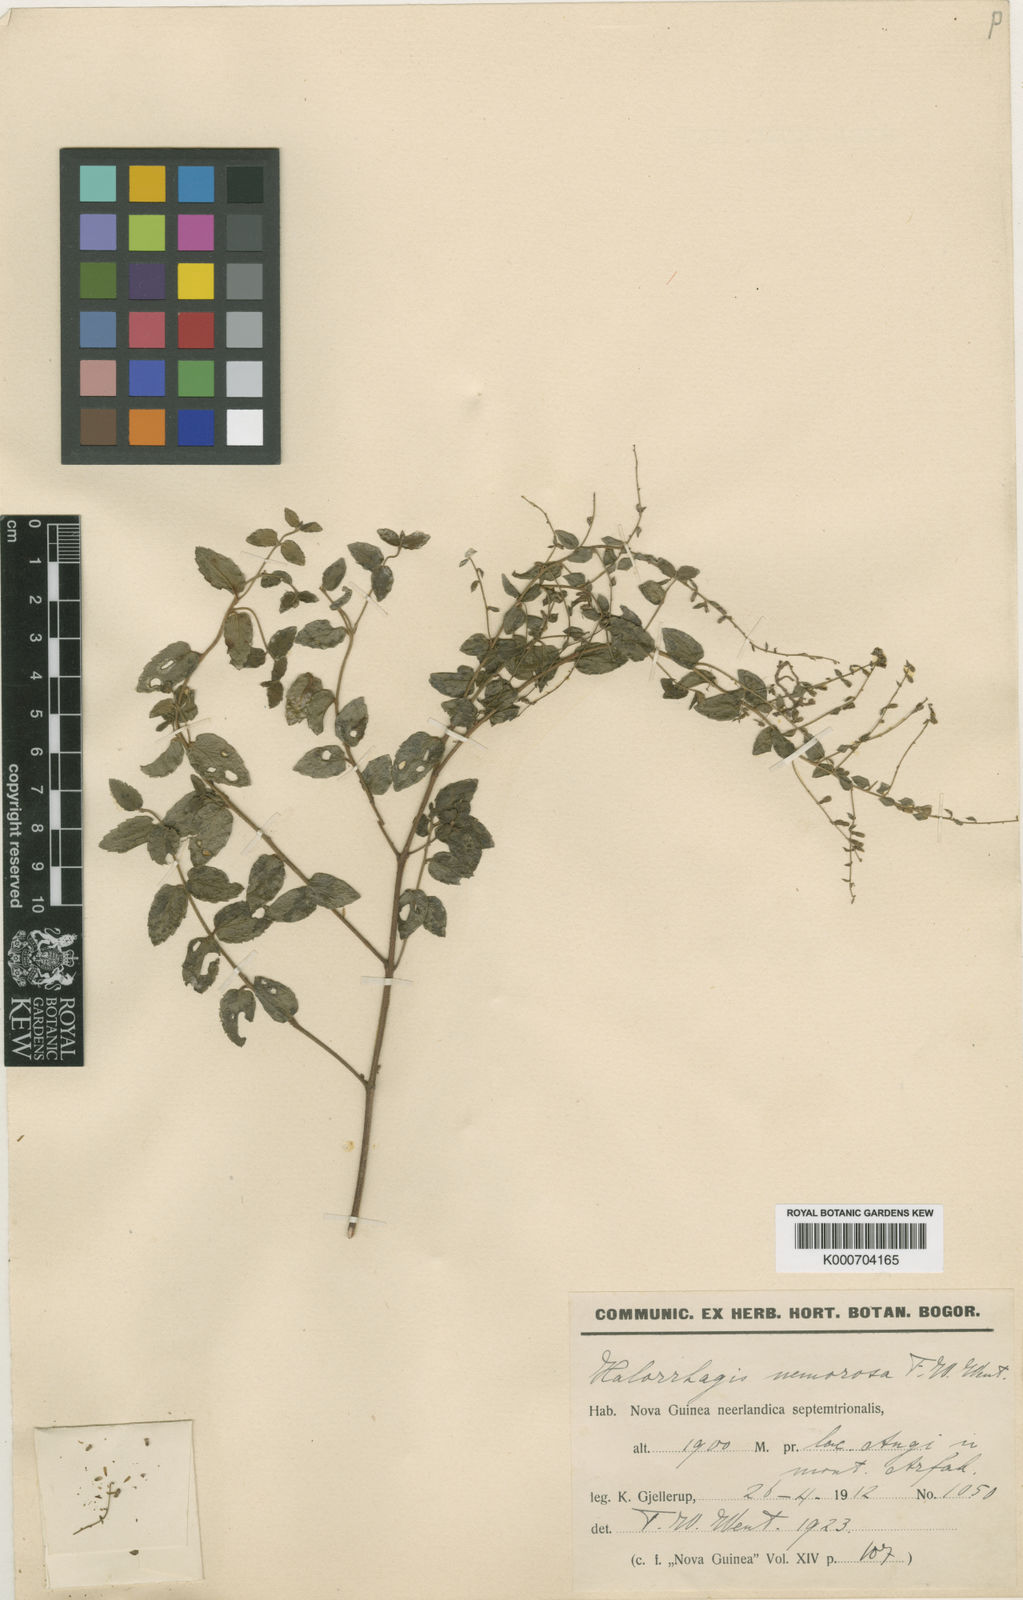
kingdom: Plantae
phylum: Tracheophyta
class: Magnoliopsida
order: Saxifragales
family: Haloragaceae
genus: Gonocarpus
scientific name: Gonocarpus
